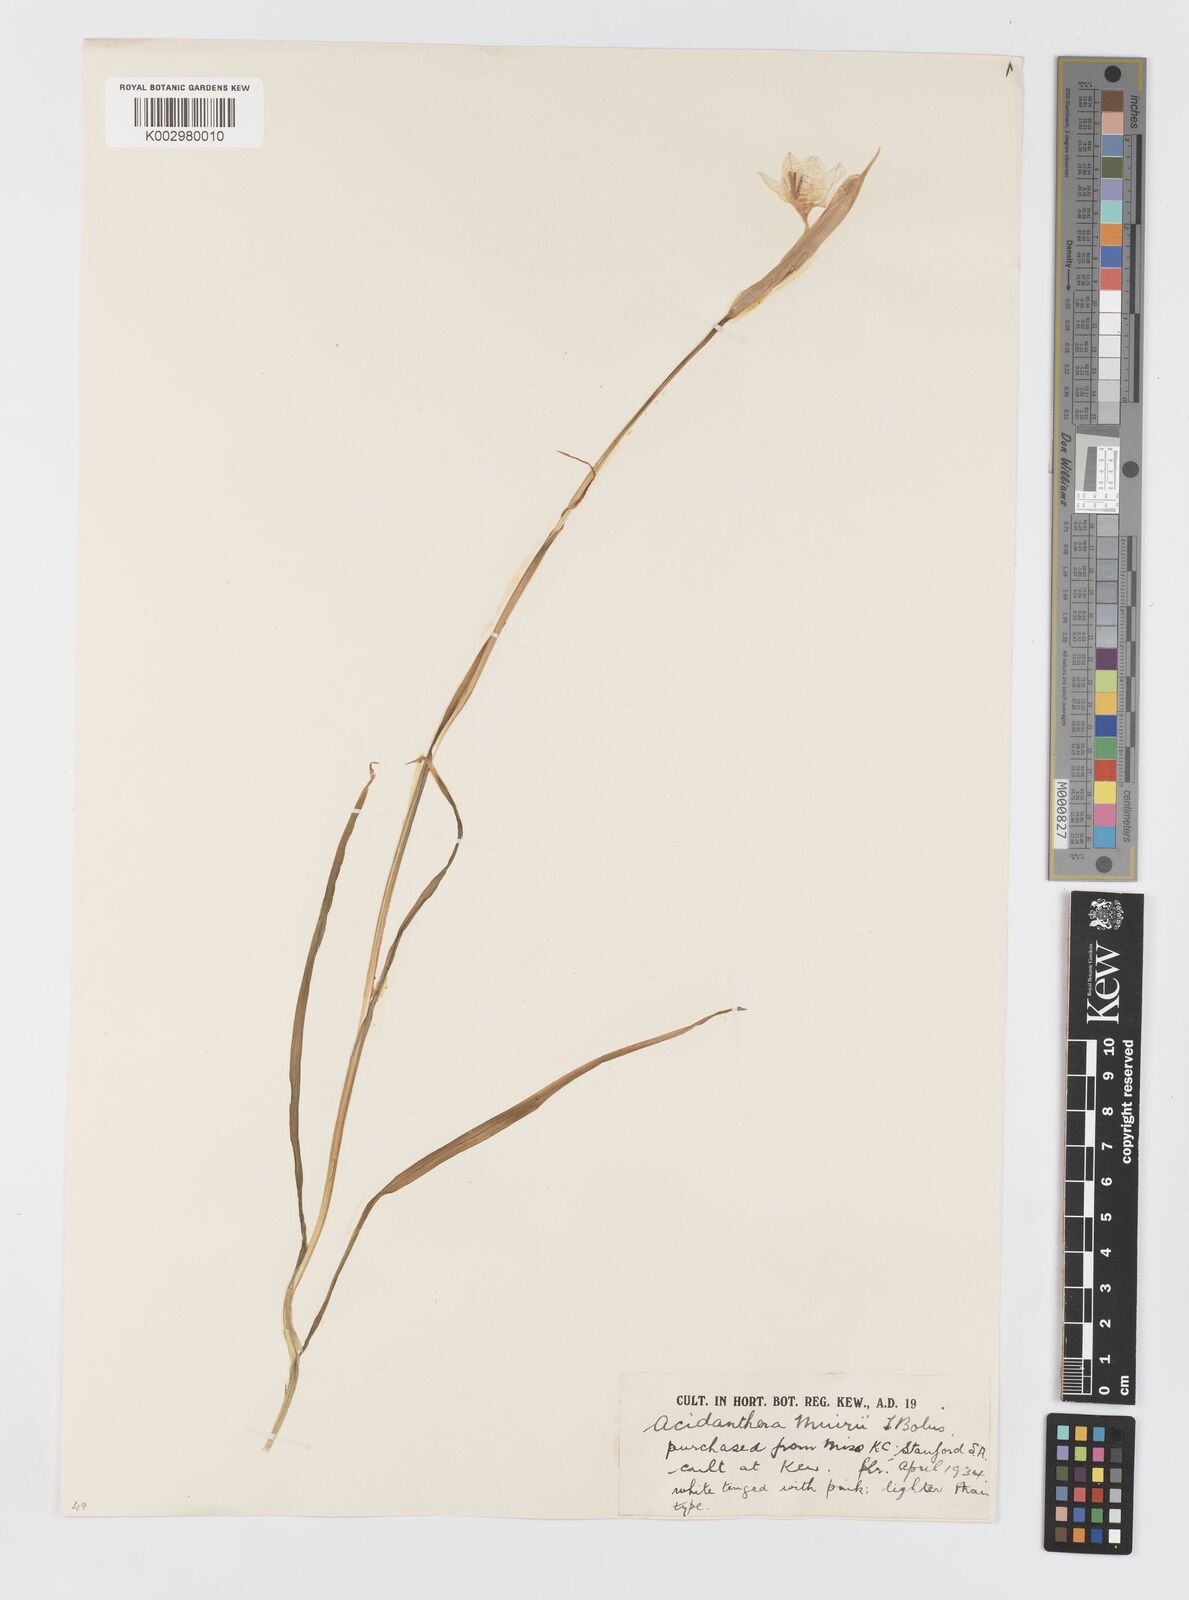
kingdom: Plantae
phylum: Tracheophyta
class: Liliopsida
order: Asparagales
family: Iridaceae
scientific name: Iridaceae
